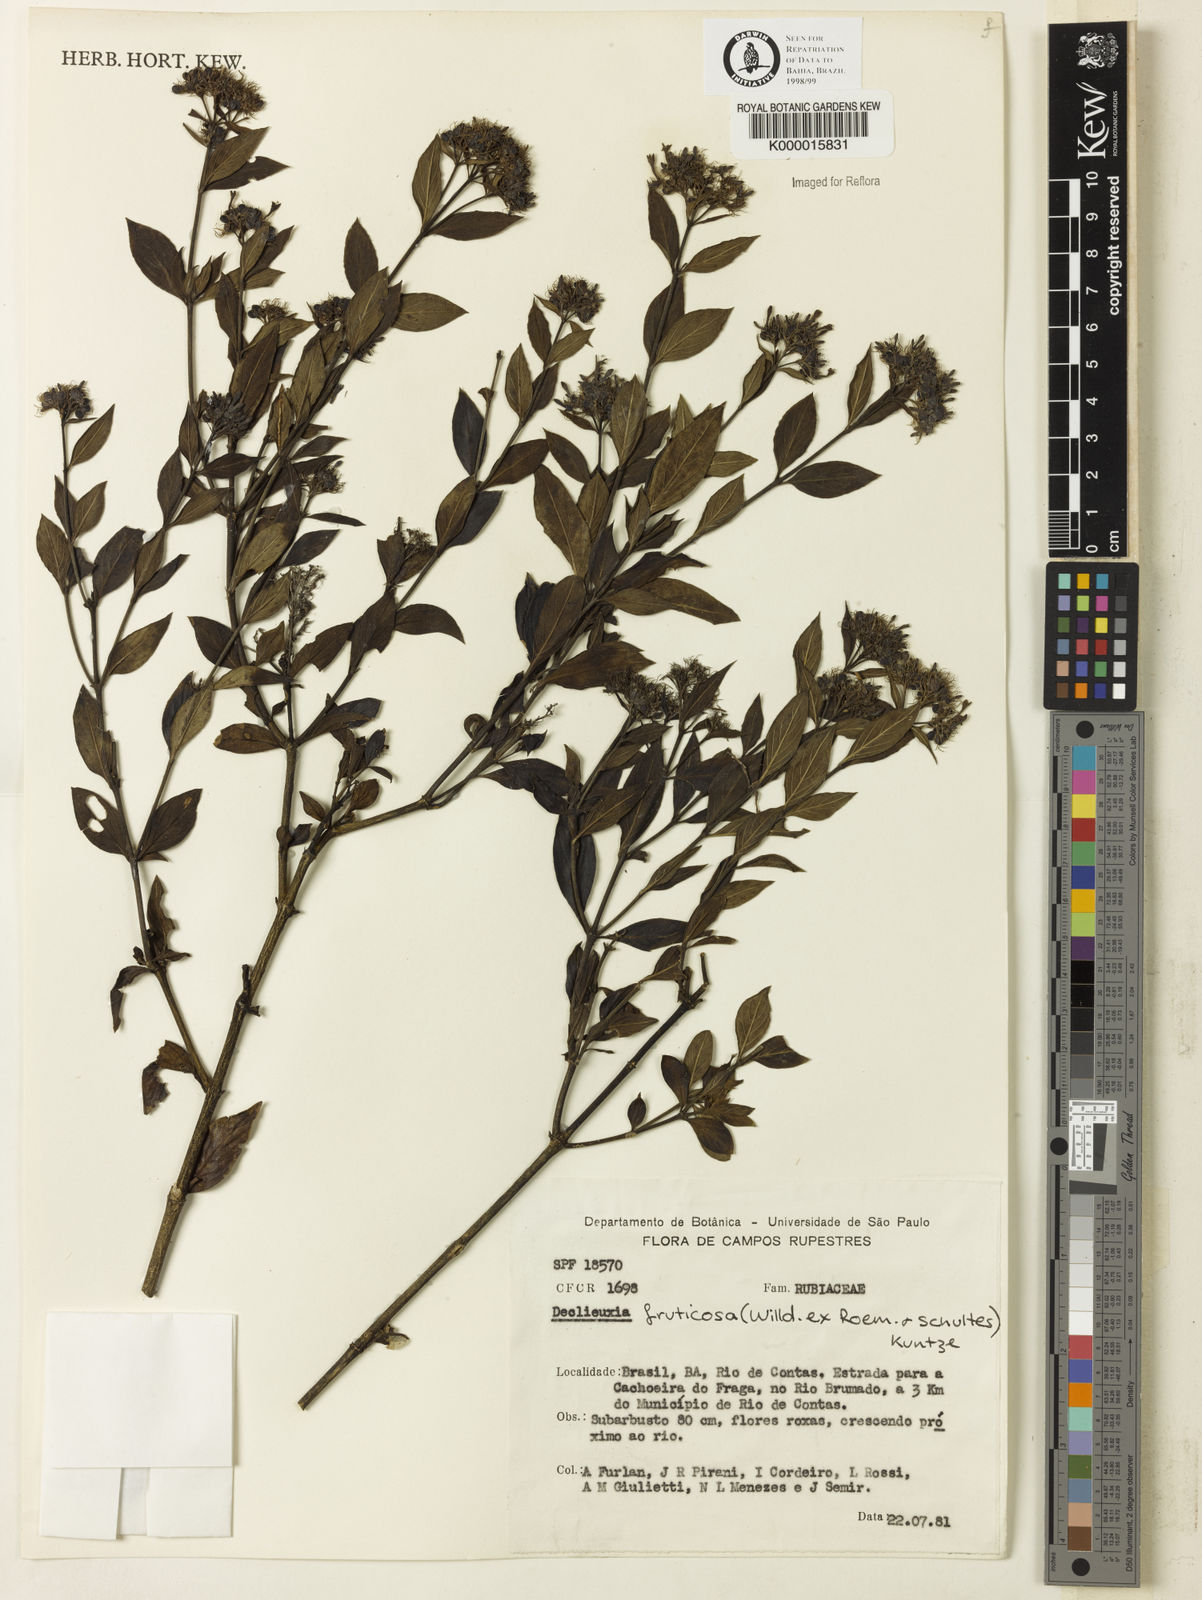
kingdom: Plantae
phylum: Tracheophyta
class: Magnoliopsida
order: Gentianales
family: Rubiaceae
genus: Declieuxia
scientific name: Declieuxia fruticosa
